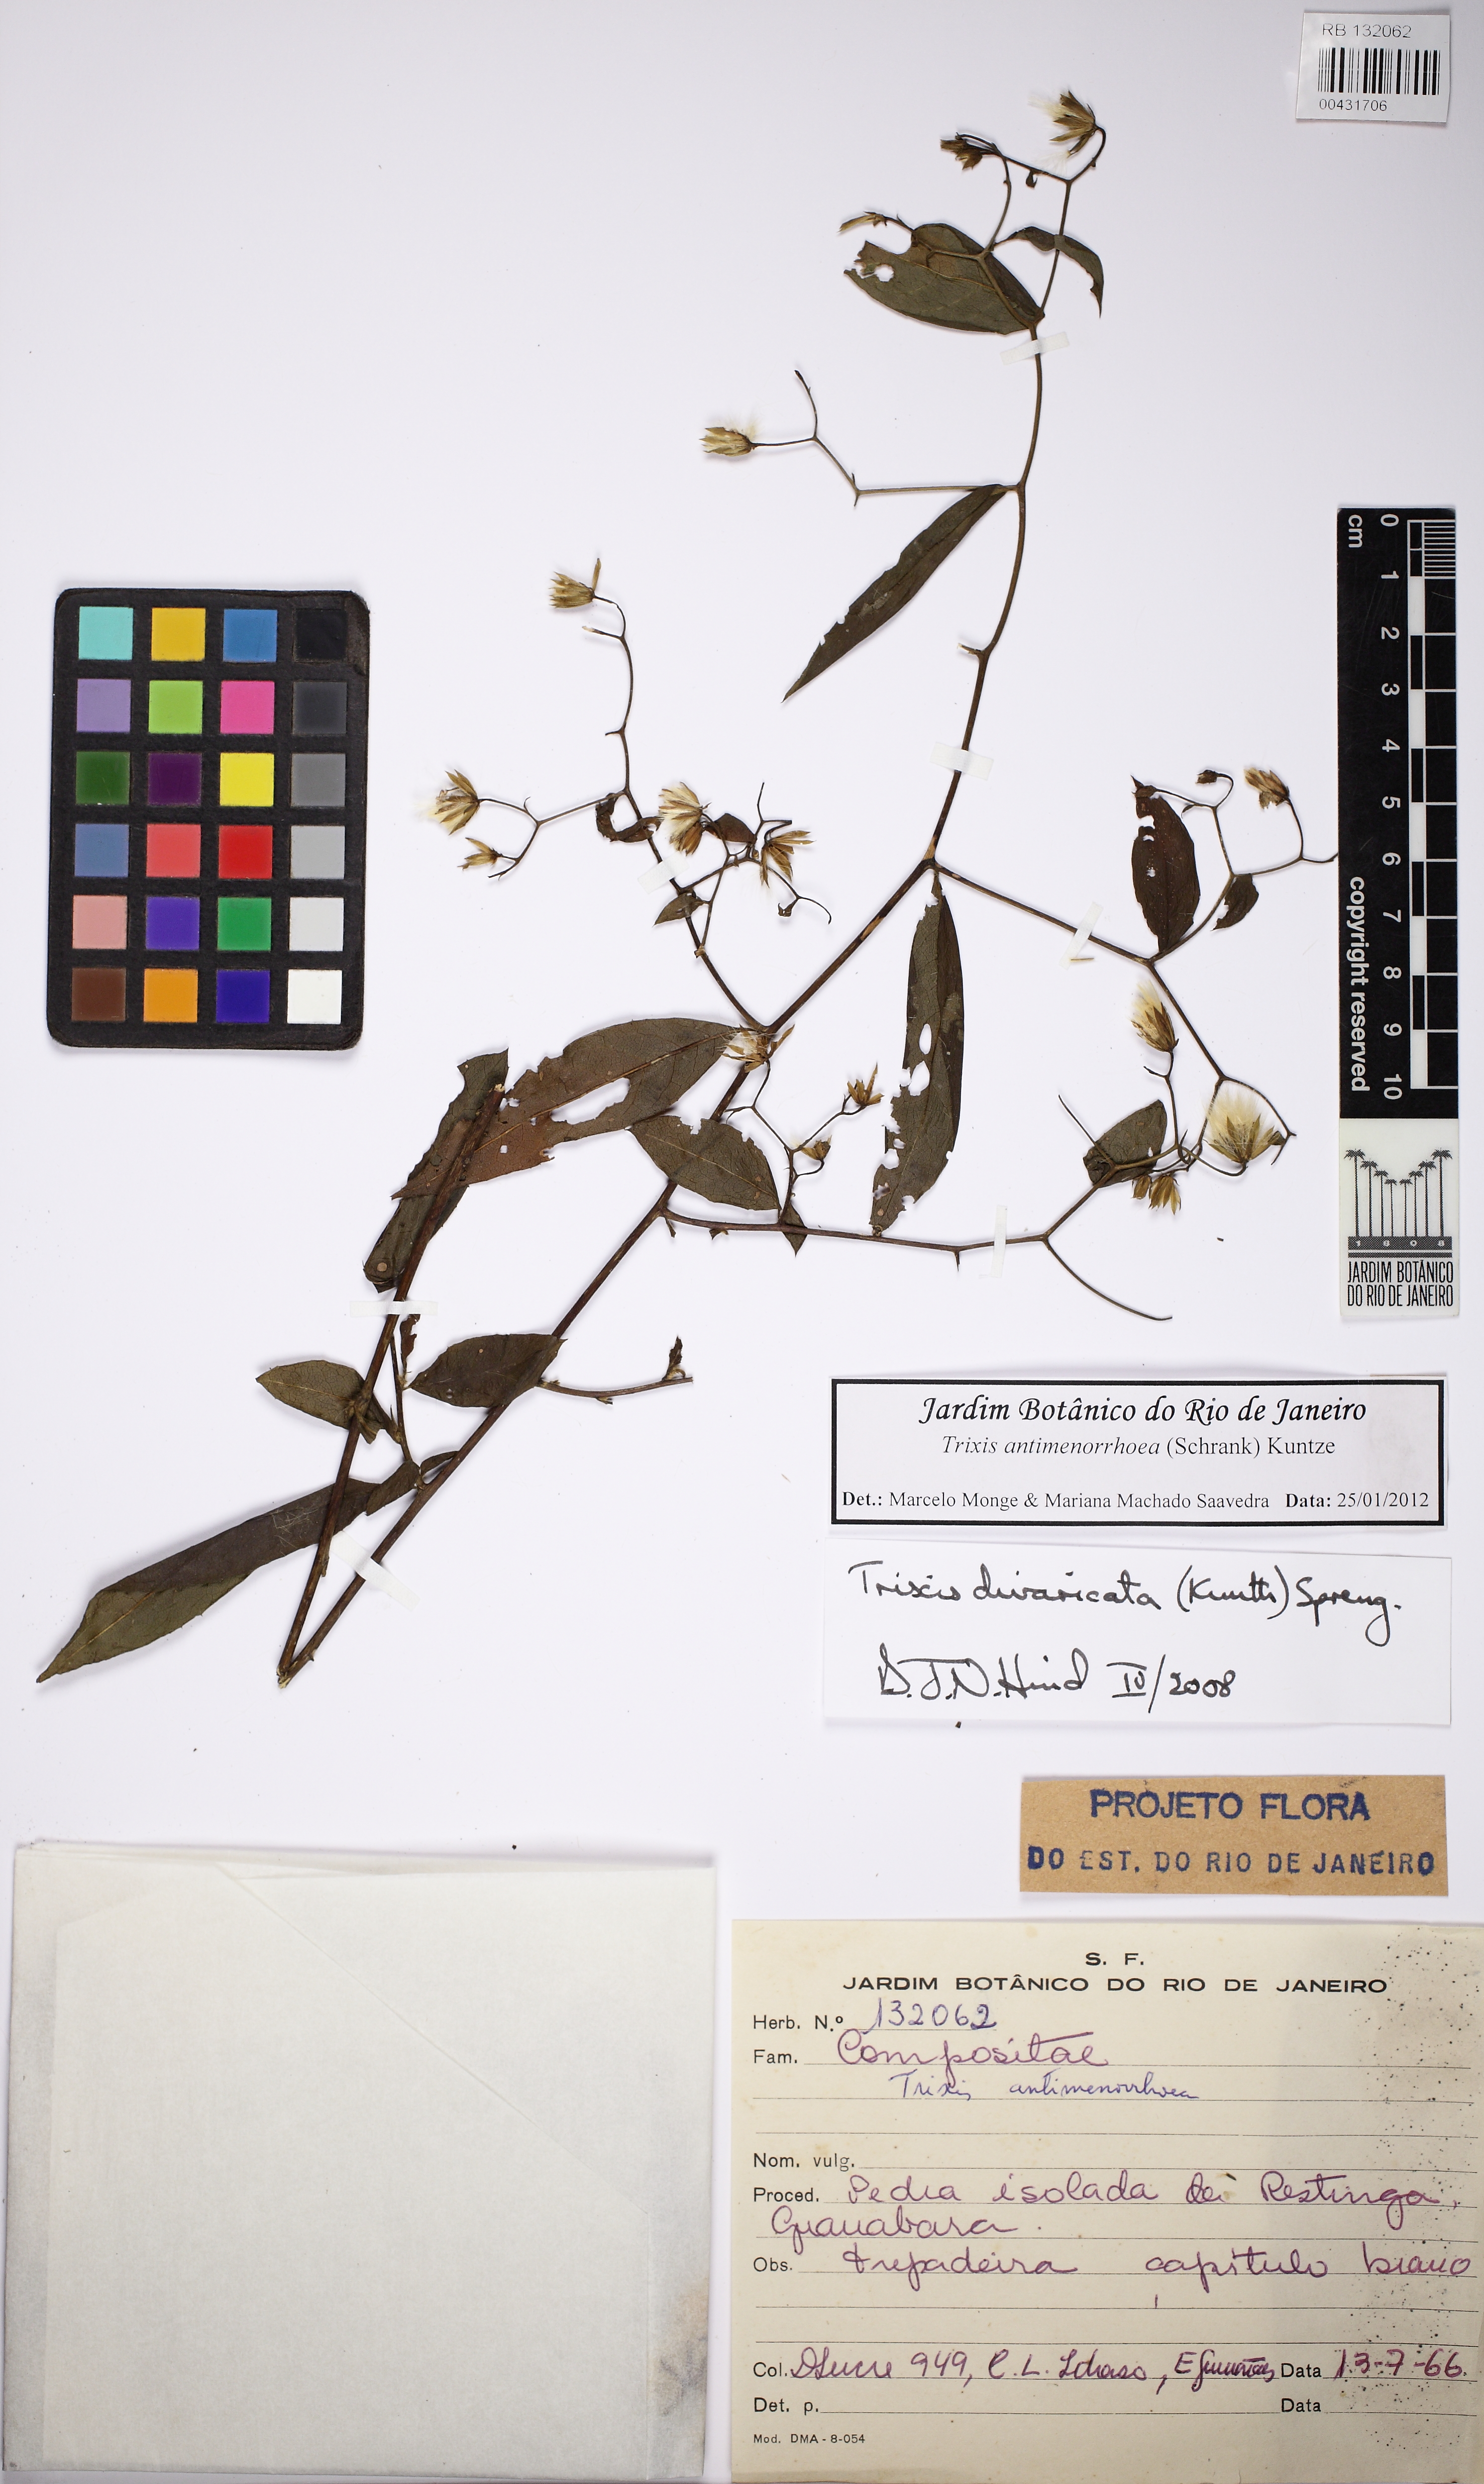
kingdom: Plantae
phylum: Tracheophyta
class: Magnoliopsida
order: Asterales
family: Asteraceae
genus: Trixis
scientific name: Trixis divaricata
